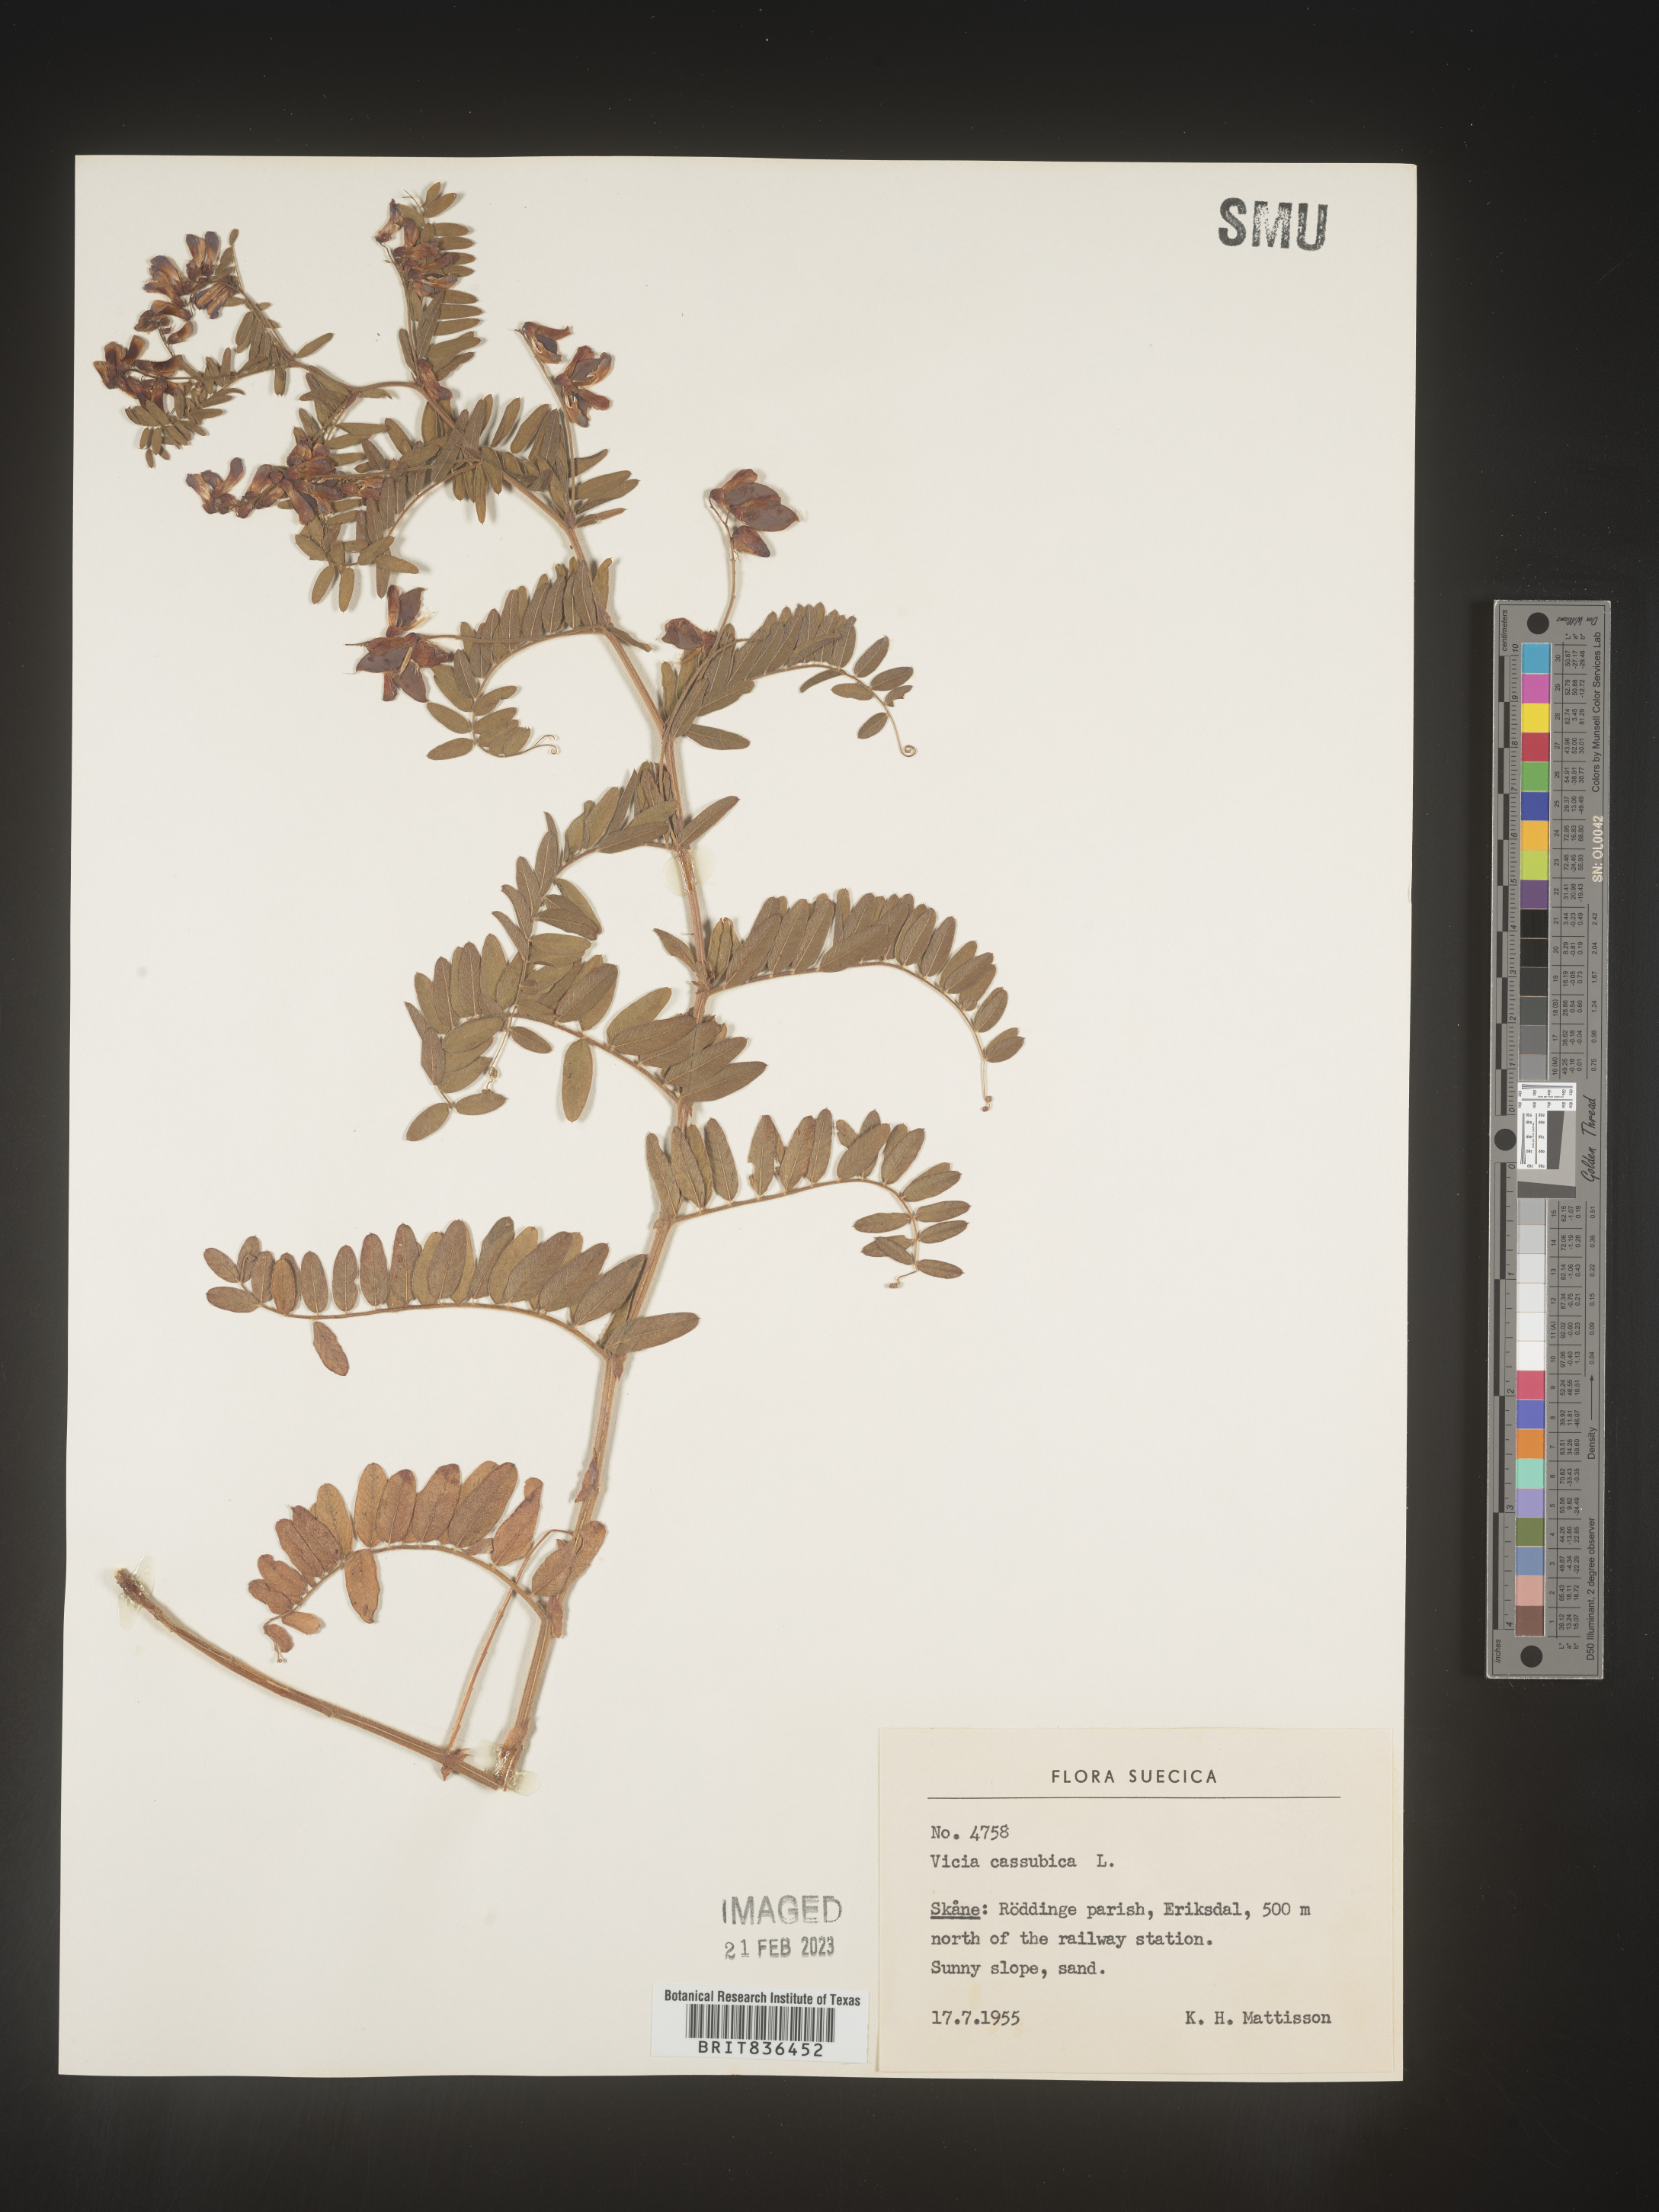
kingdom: Plantae
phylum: Tracheophyta
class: Magnoliopsida
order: Fabales
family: Fabaceae
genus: Vicia
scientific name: Vicia
